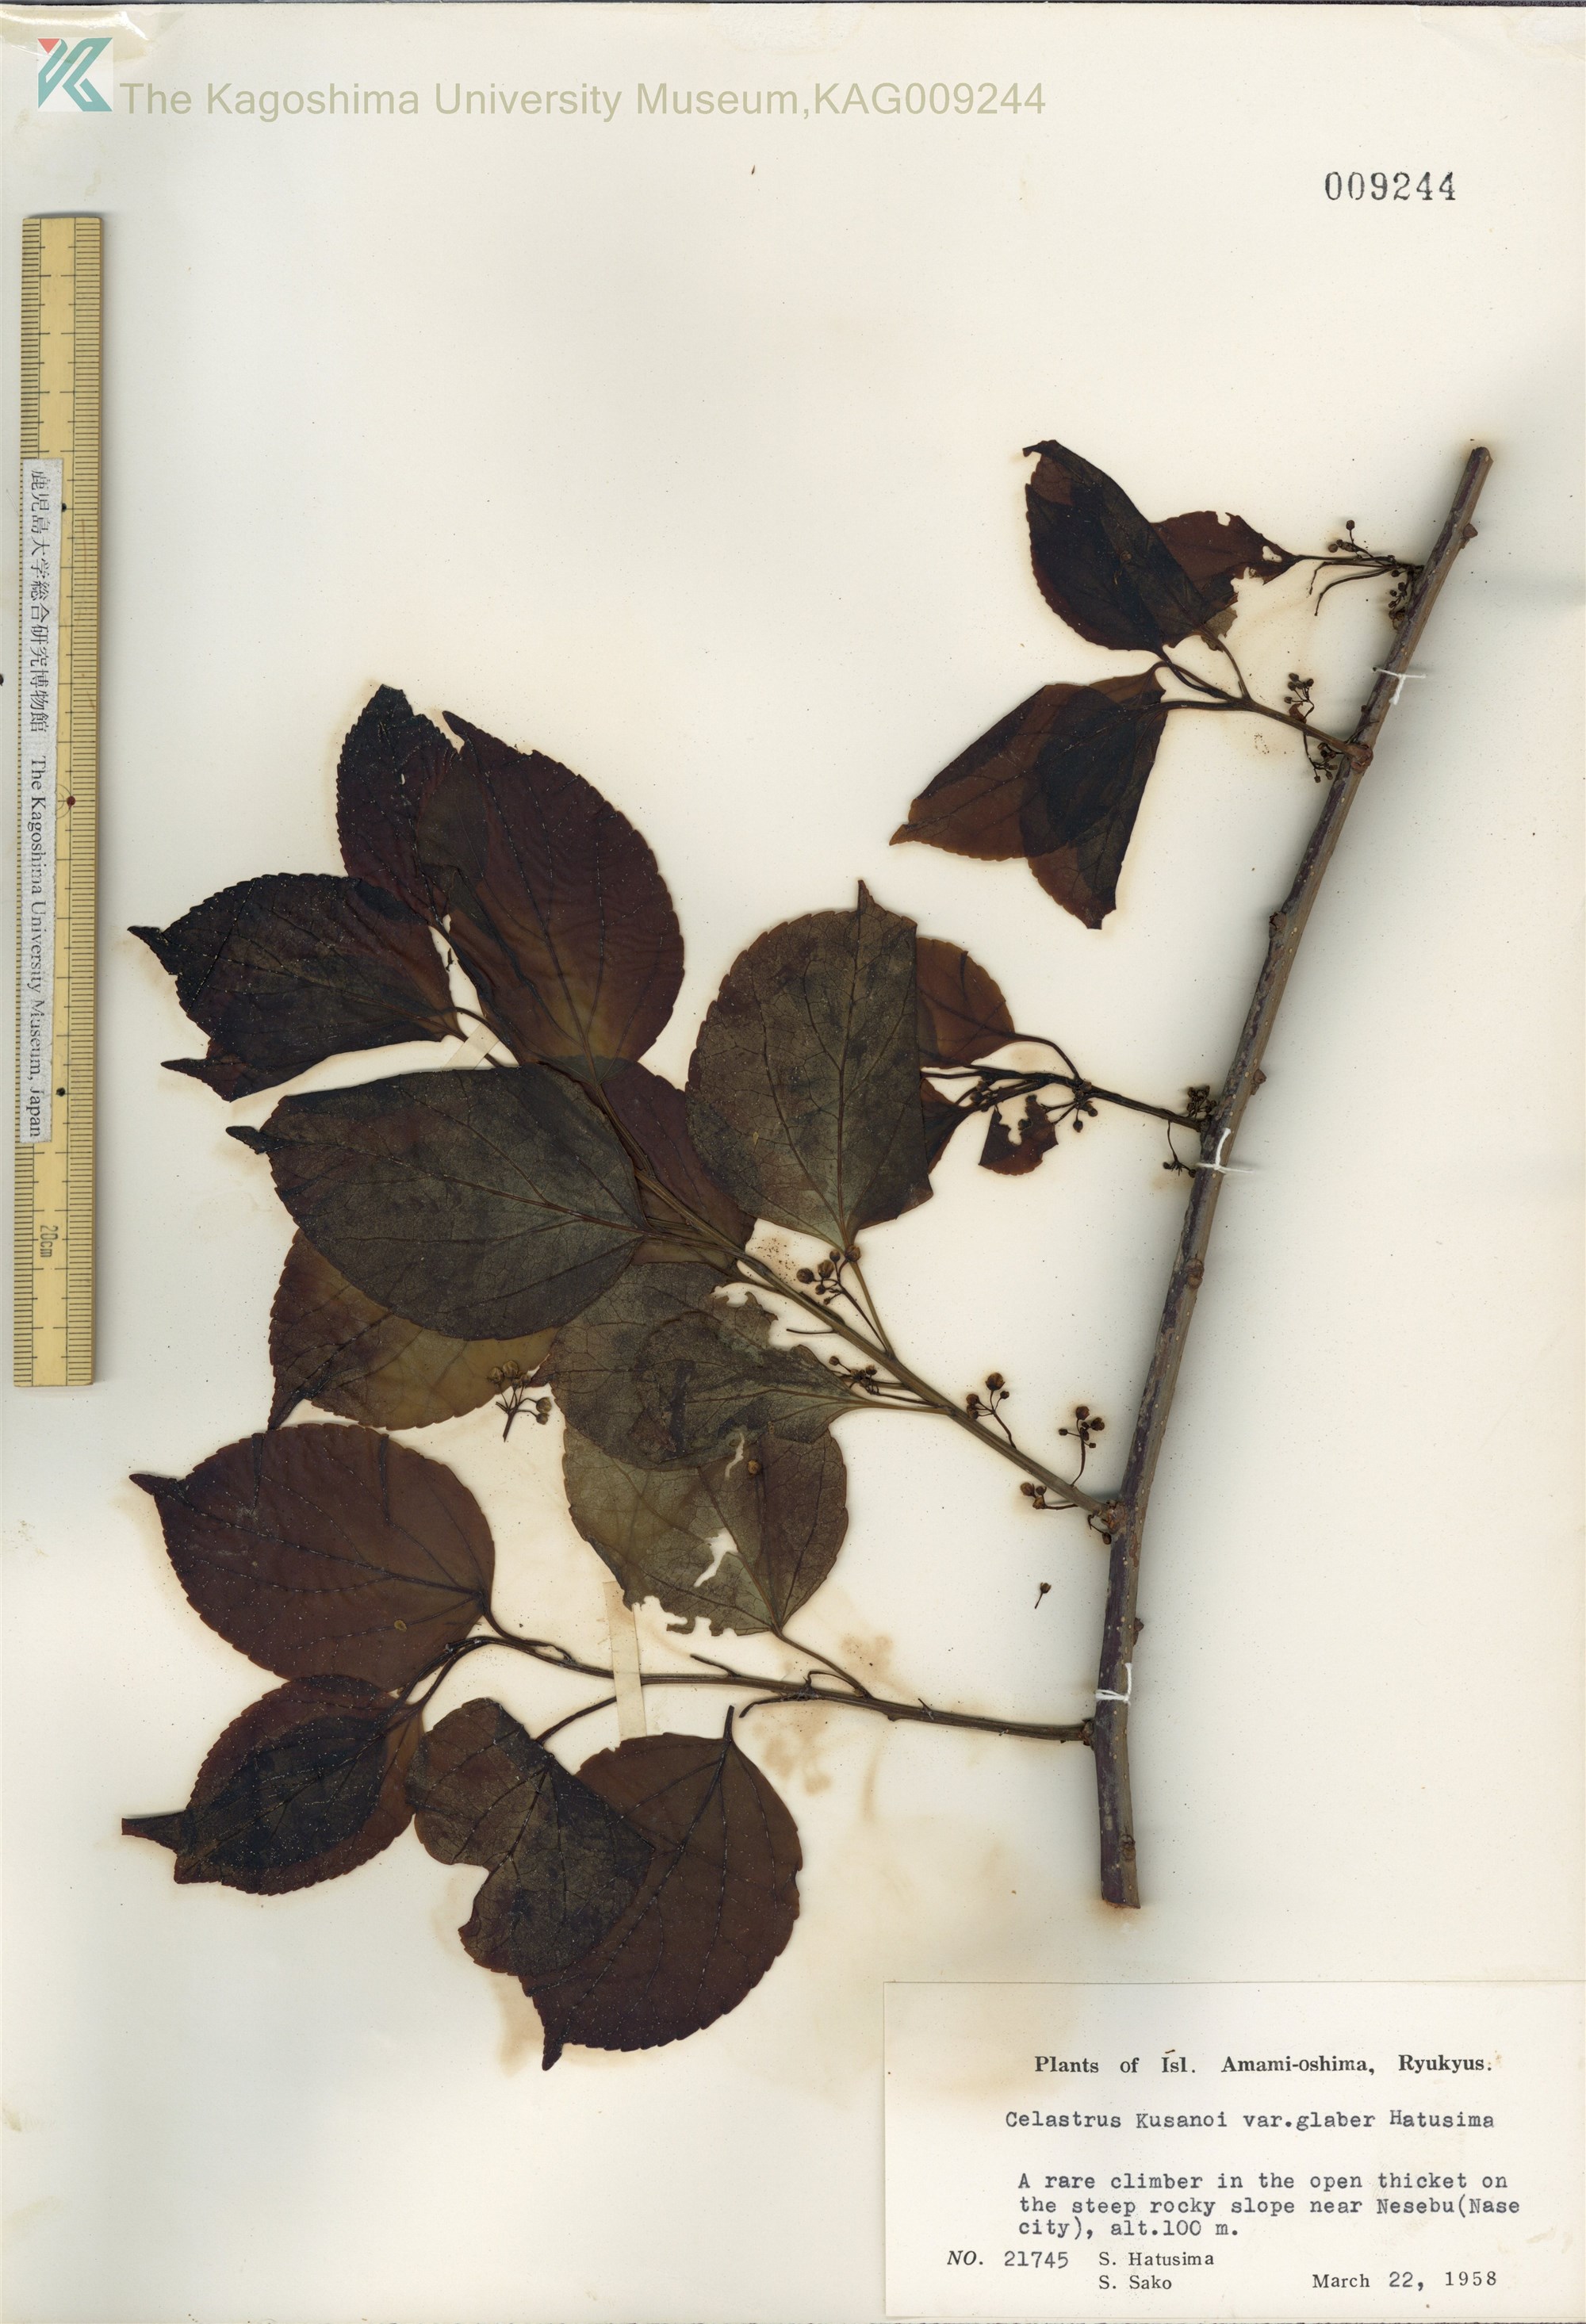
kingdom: Plantae
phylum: Tracheophyta
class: Magnoliopsida
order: Celastrales
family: Celastraceae
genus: Celastrus
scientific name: Celastrus hypoleucus
